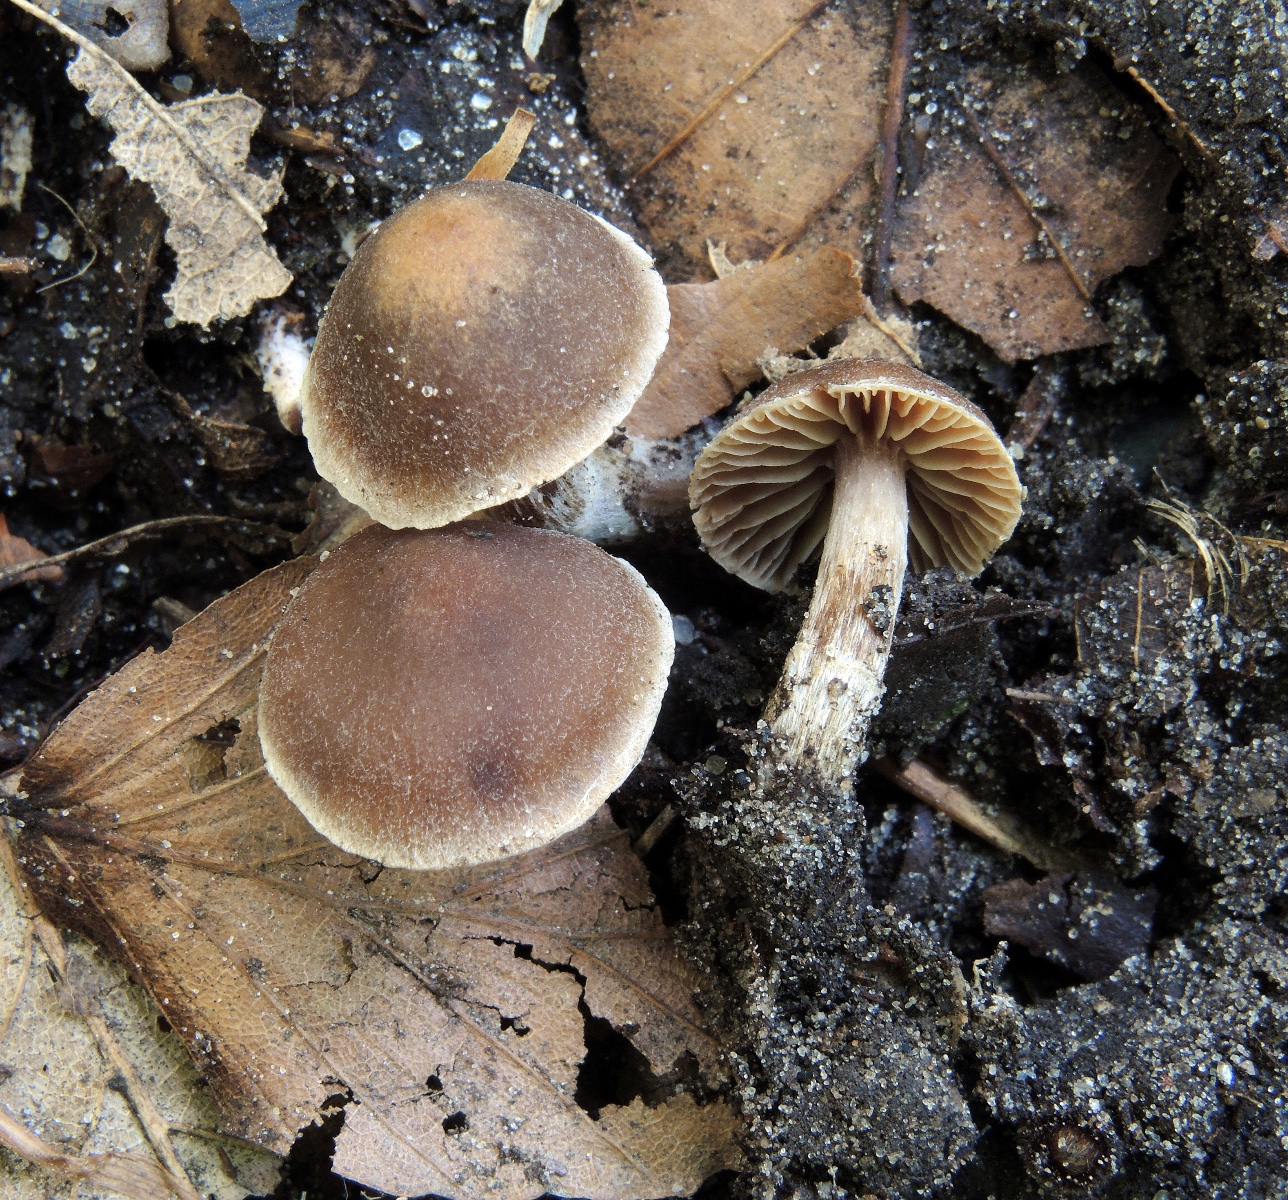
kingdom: Fungi
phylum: Basidiomycota
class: Agaricomycetes
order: Agaricales
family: Cortinariaceae
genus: Cortinarius
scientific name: Cortinarius russulaespermus
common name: finstribet slørhat
